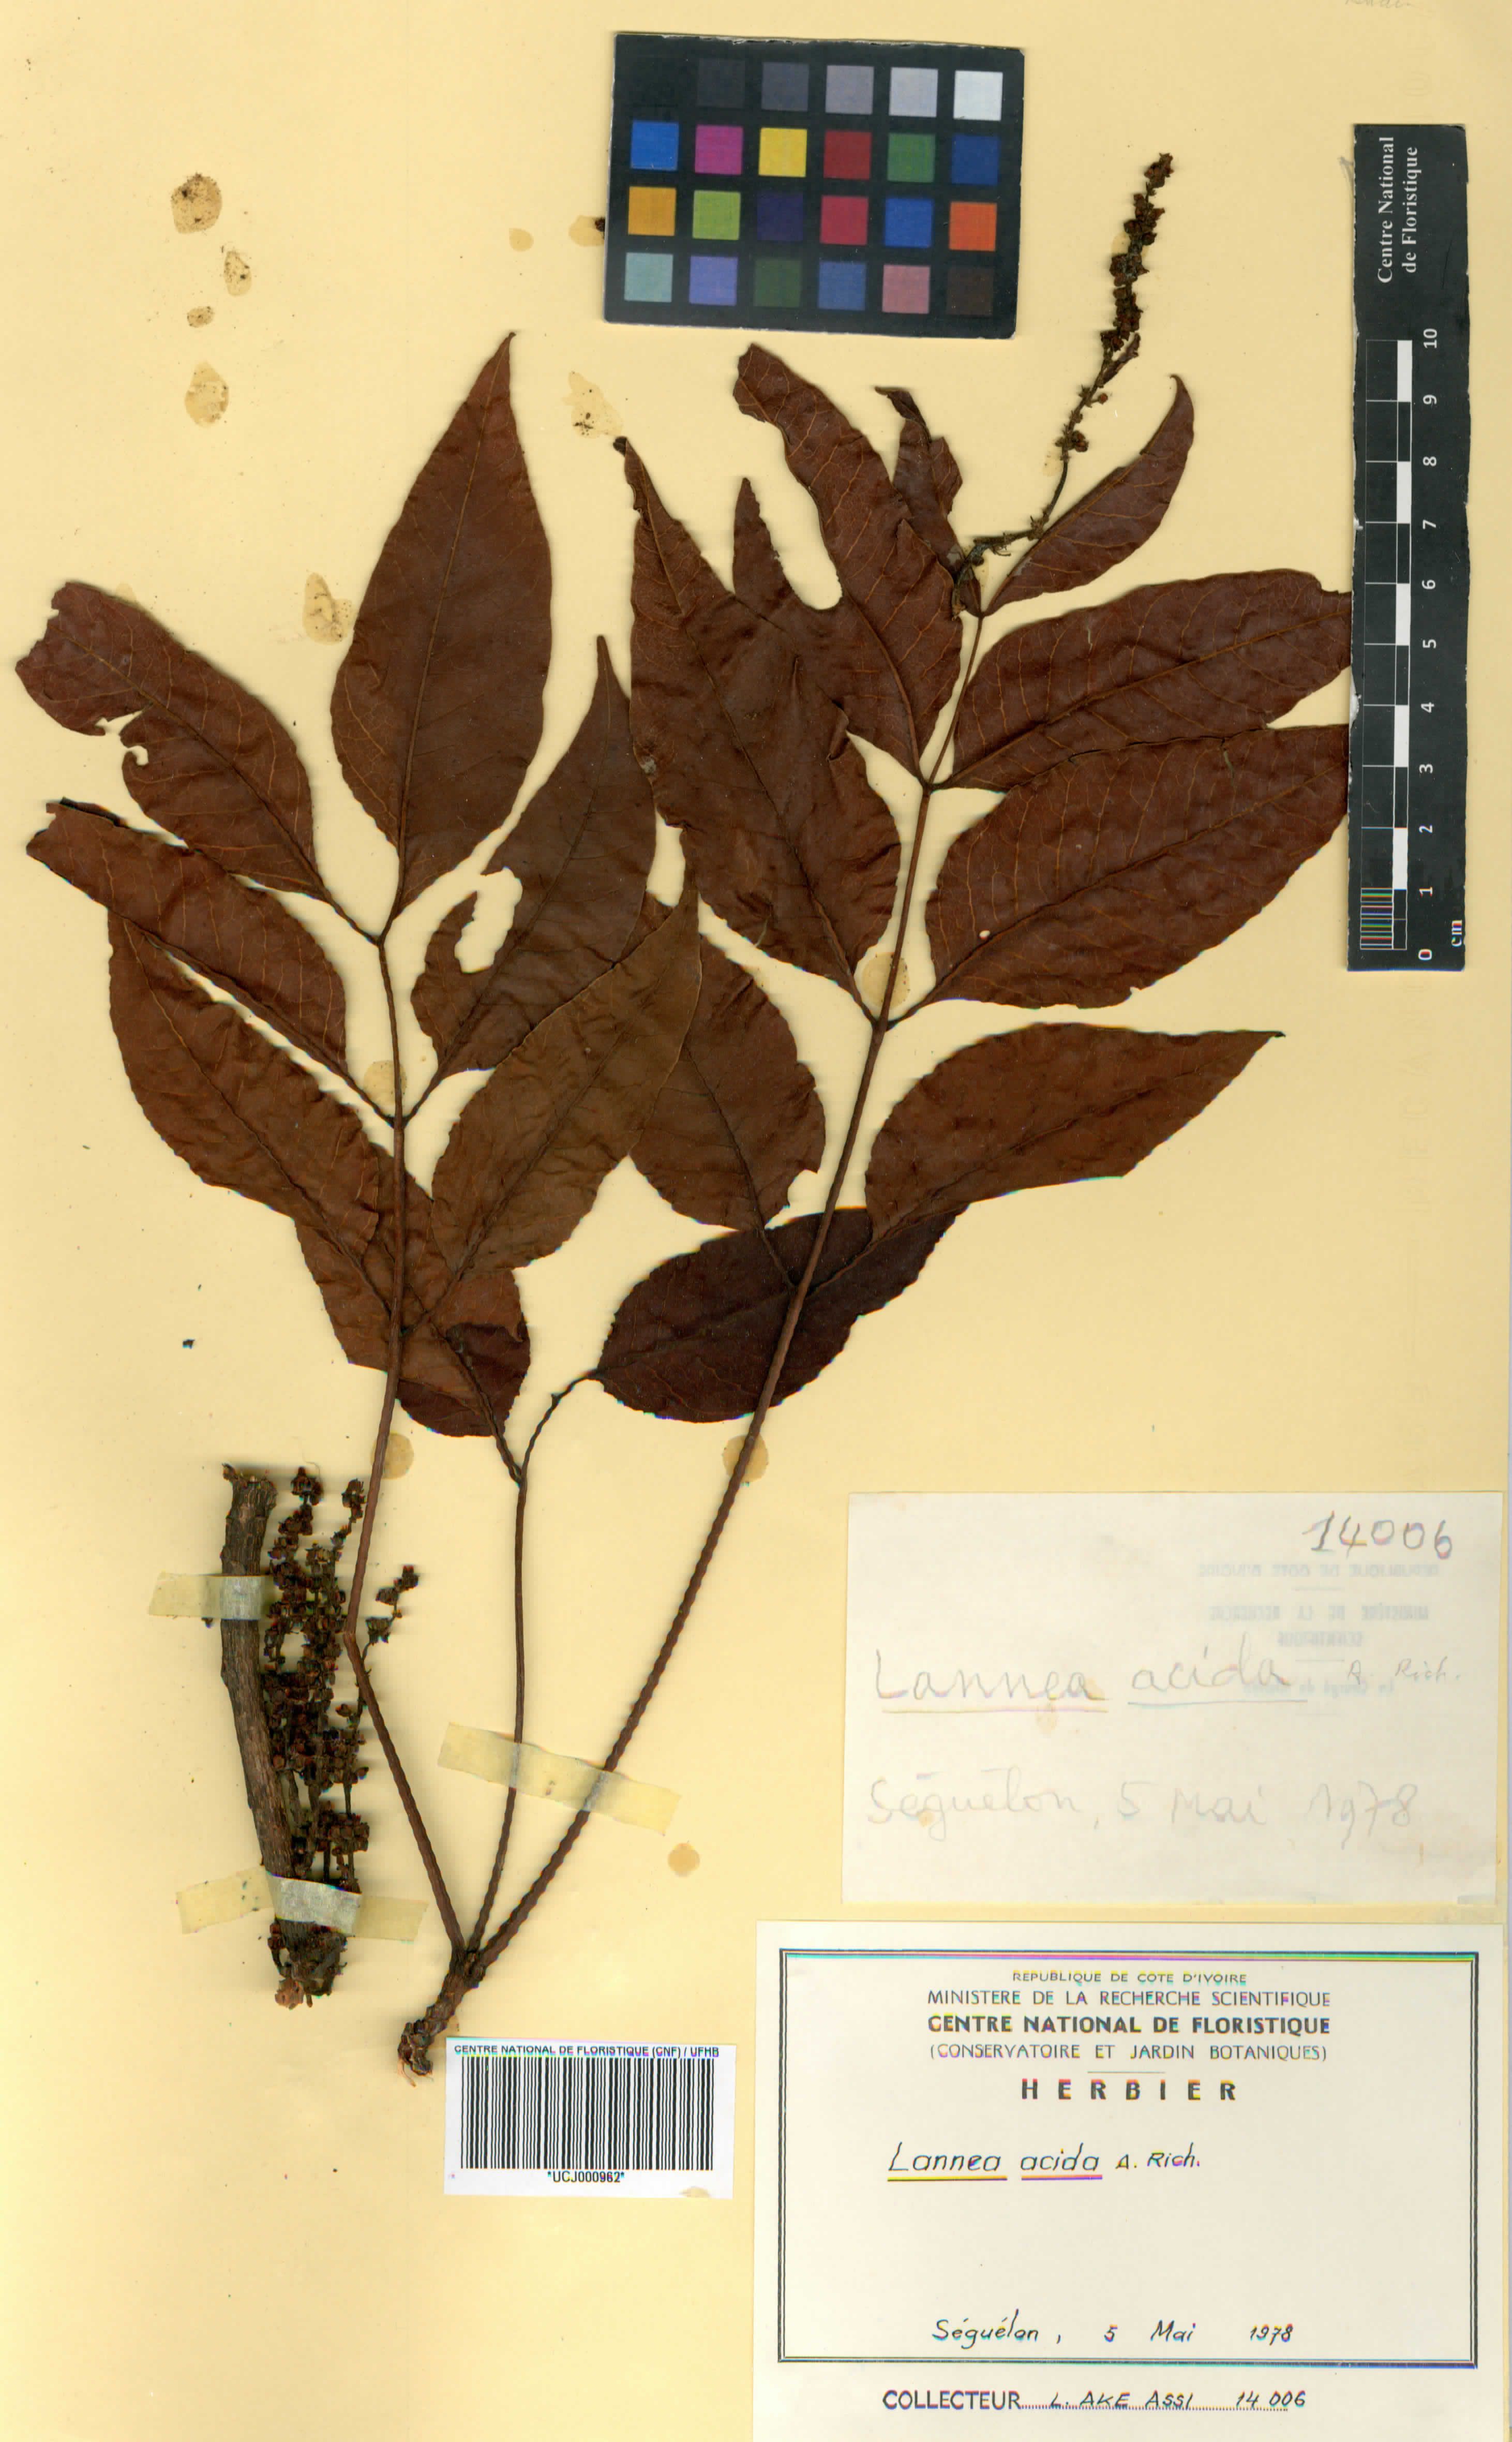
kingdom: Plantae
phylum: Tracheophyta
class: Magnoliopsida
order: Sapindales
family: Anacardiaceae
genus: Lannea
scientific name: Lannea acida
